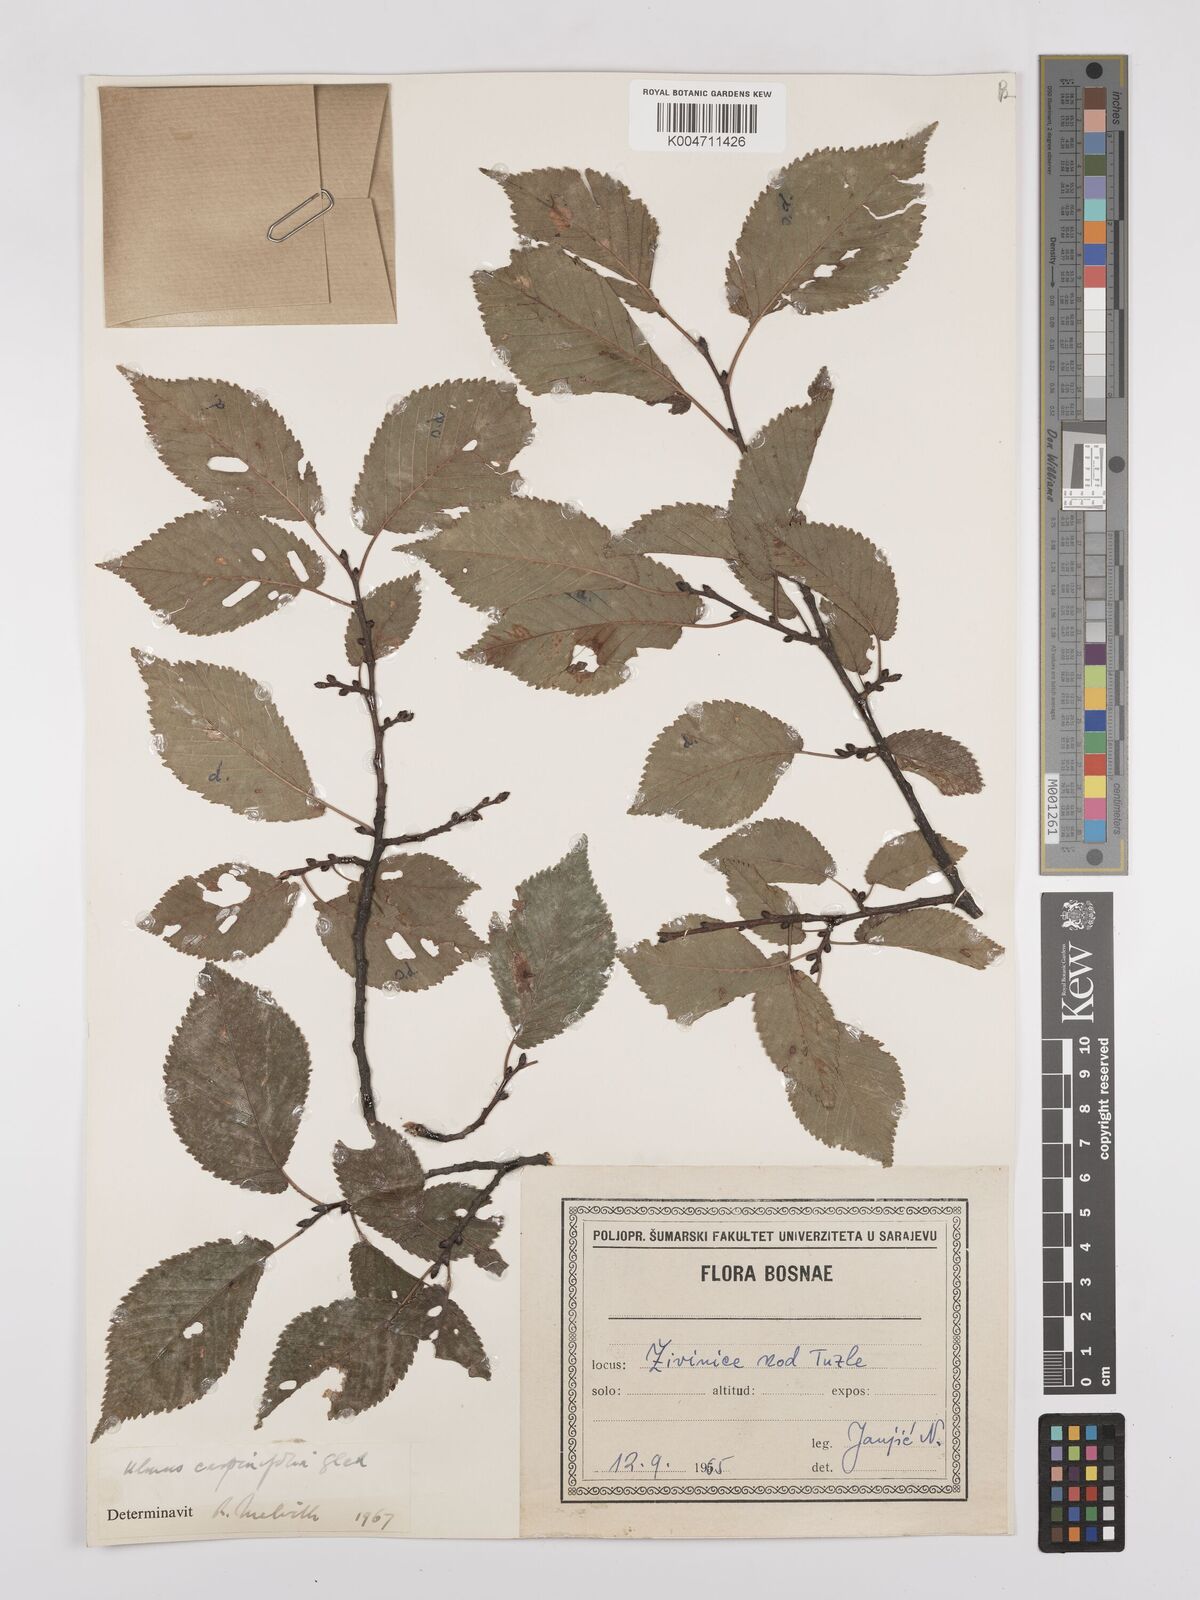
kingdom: Plantae
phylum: Tracheophyta
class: Magnoliopsida
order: Rosales
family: Ulmaceae
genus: Ulmus
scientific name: Ulmus minor
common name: Small-leaved elm
